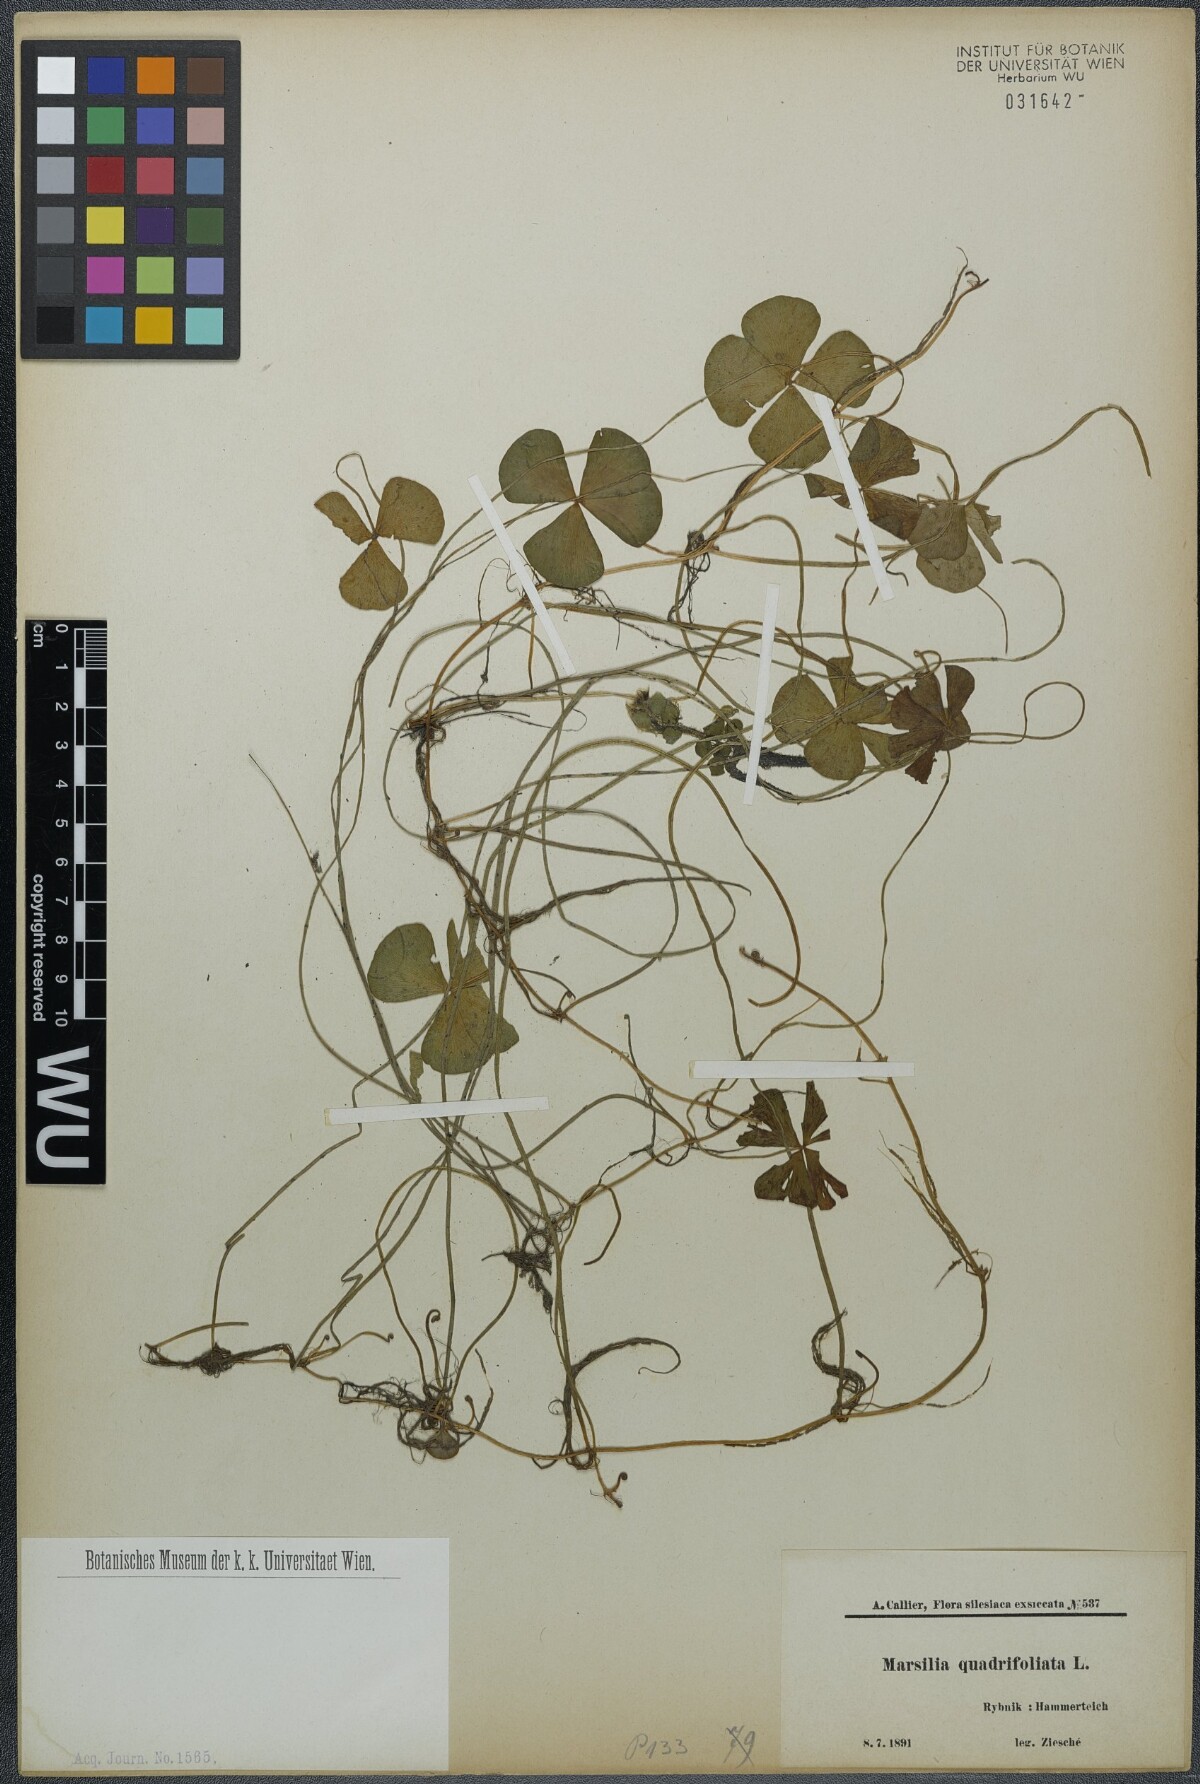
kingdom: Plantae
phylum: Tracheophyta
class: Polypodiopsida
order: Salviniales
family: Marsileaceae
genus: Marsilea
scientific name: Marsilea quadrifolia
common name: Water shamrock
